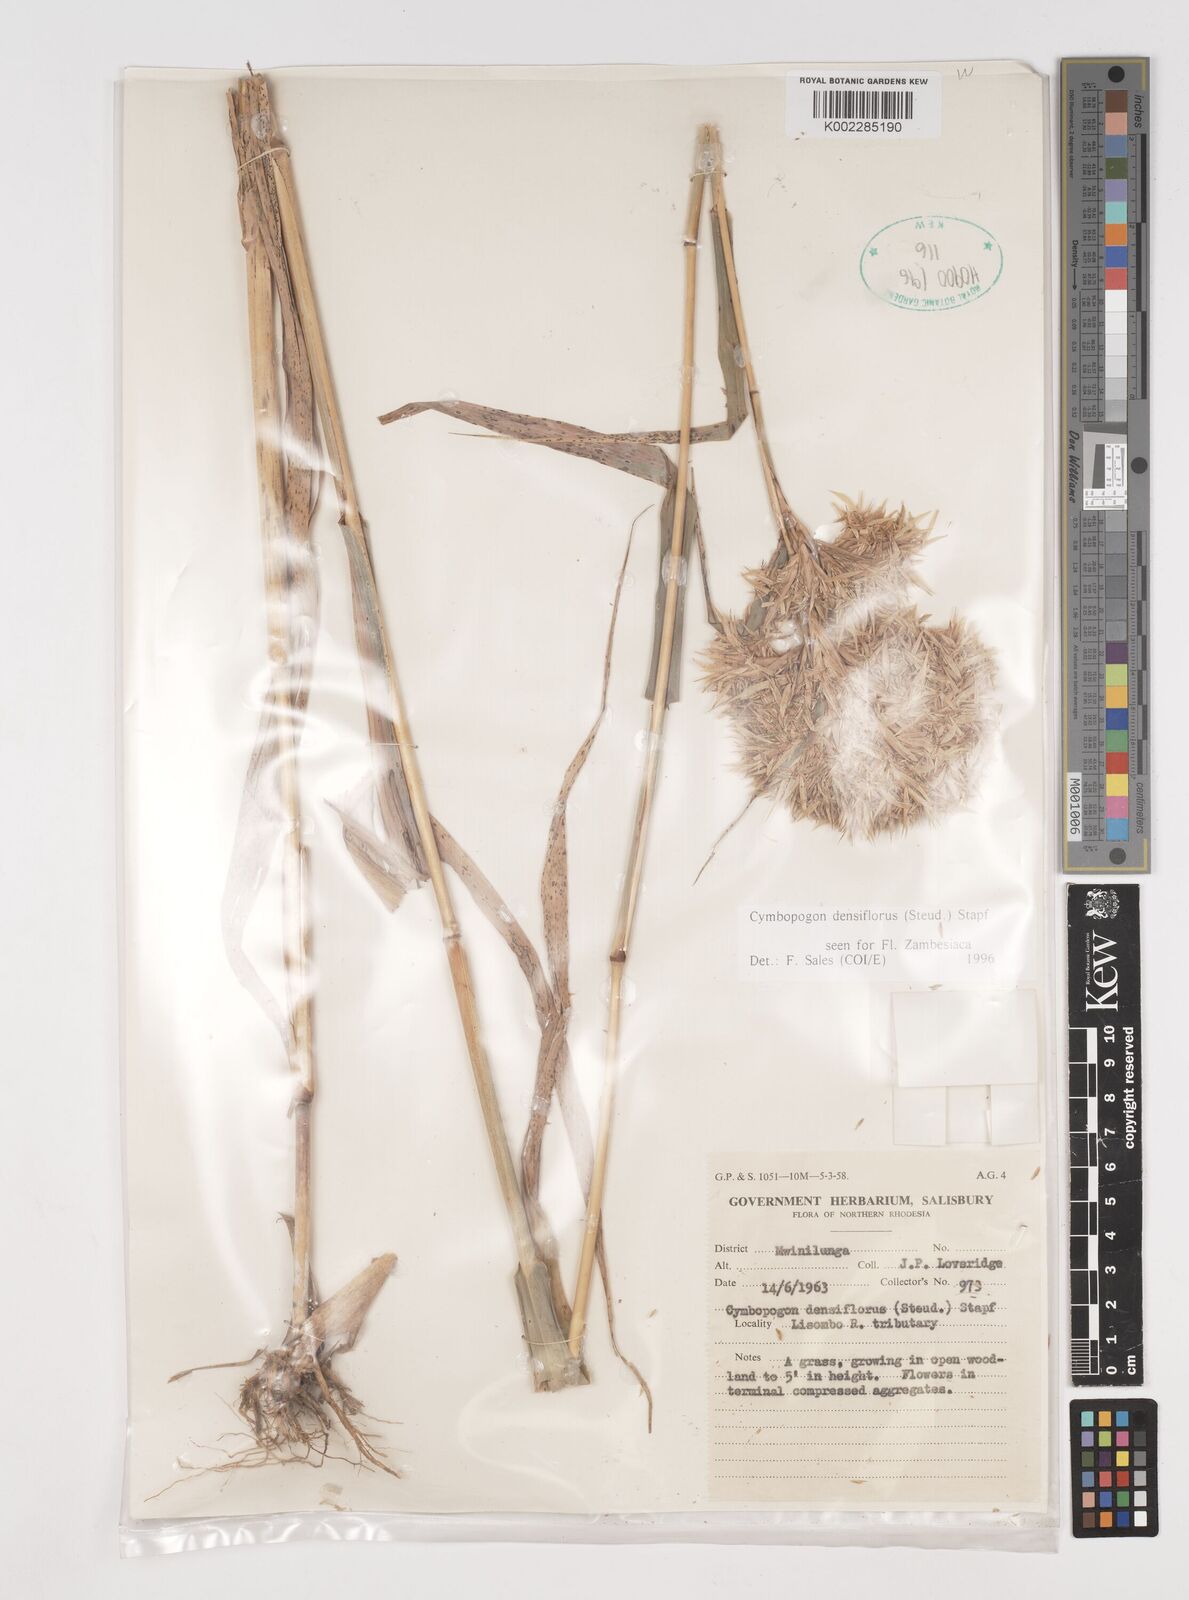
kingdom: Plantae
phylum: Tracheophyta
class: Liliopsida
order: Poales
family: Poaceae
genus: Cymbopogon
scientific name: Cymbopogon densiflorus
